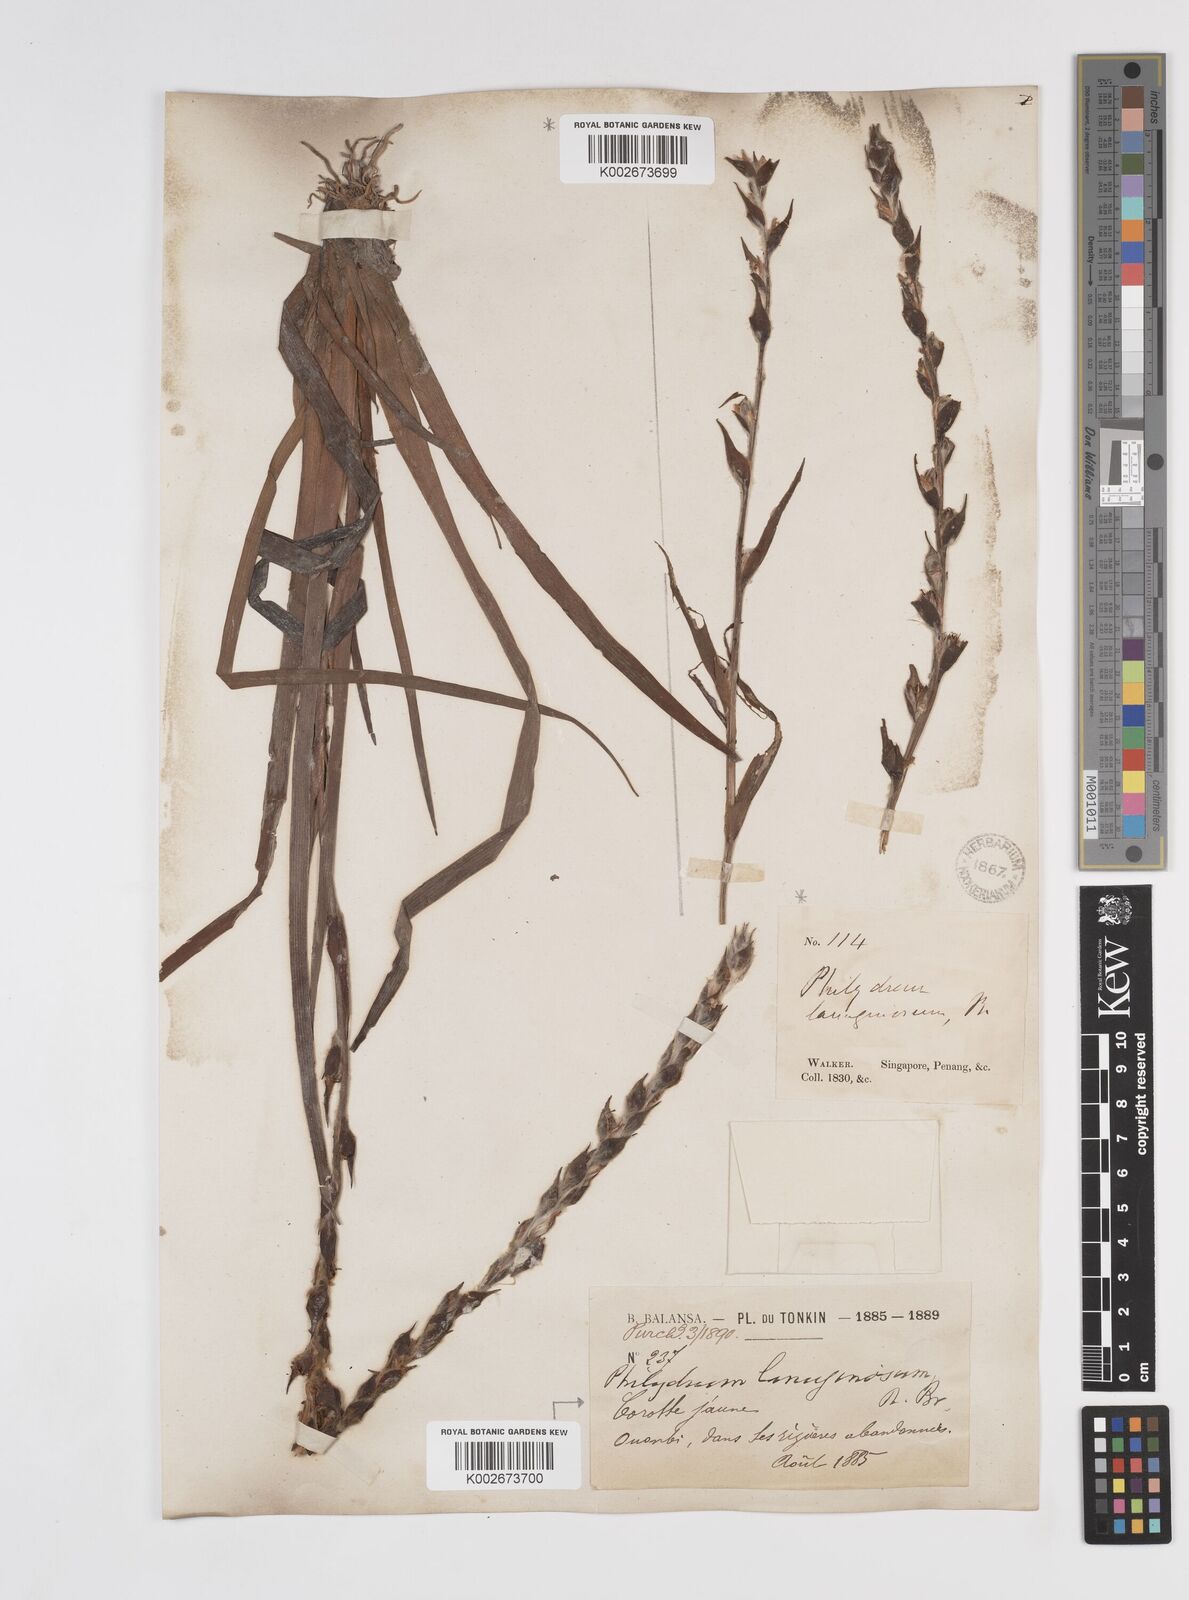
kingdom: Plantae
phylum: Tracheophyta
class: Liliopsida
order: Commelinales
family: Philydraceae
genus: Philydrum
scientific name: Philydrum lanuginosum
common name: Woolly frog's mouth
